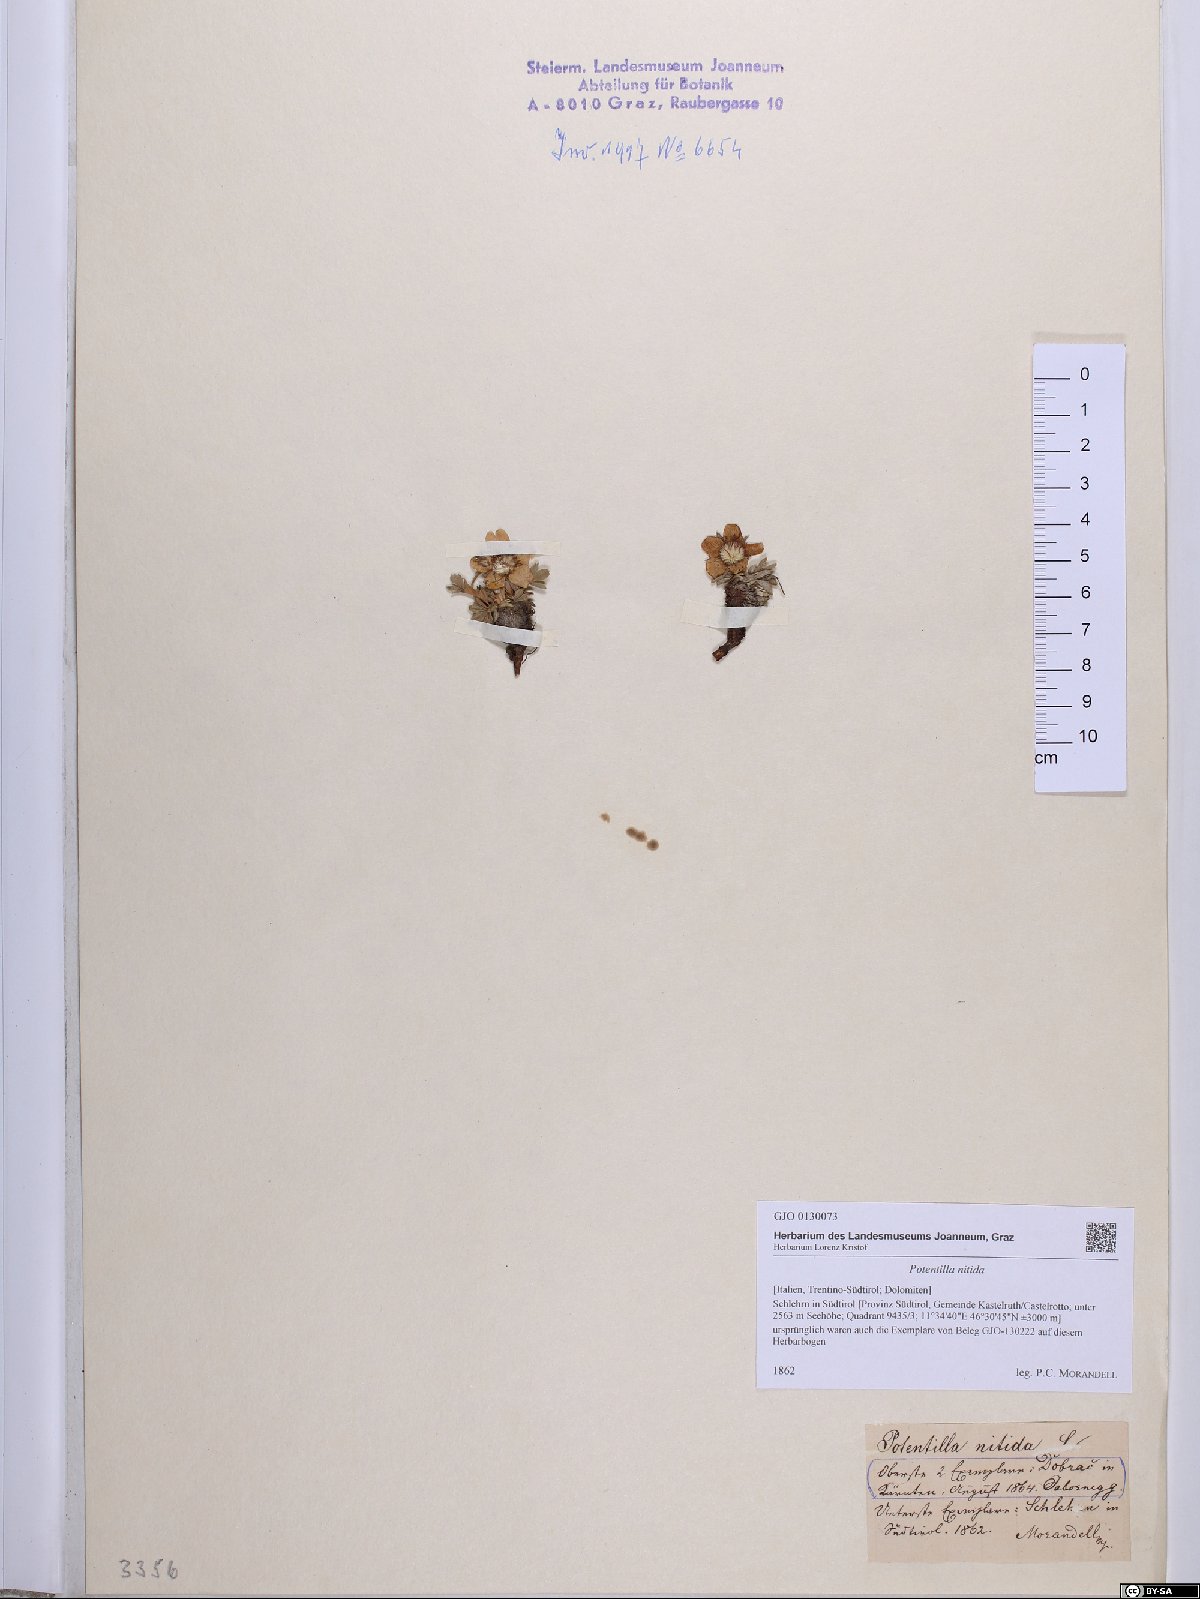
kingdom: Plantae
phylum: Tracheophyta
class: Magnoliopsida
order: Rosales
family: Rosaceae
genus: Potentilla
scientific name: Potentilla nitida
